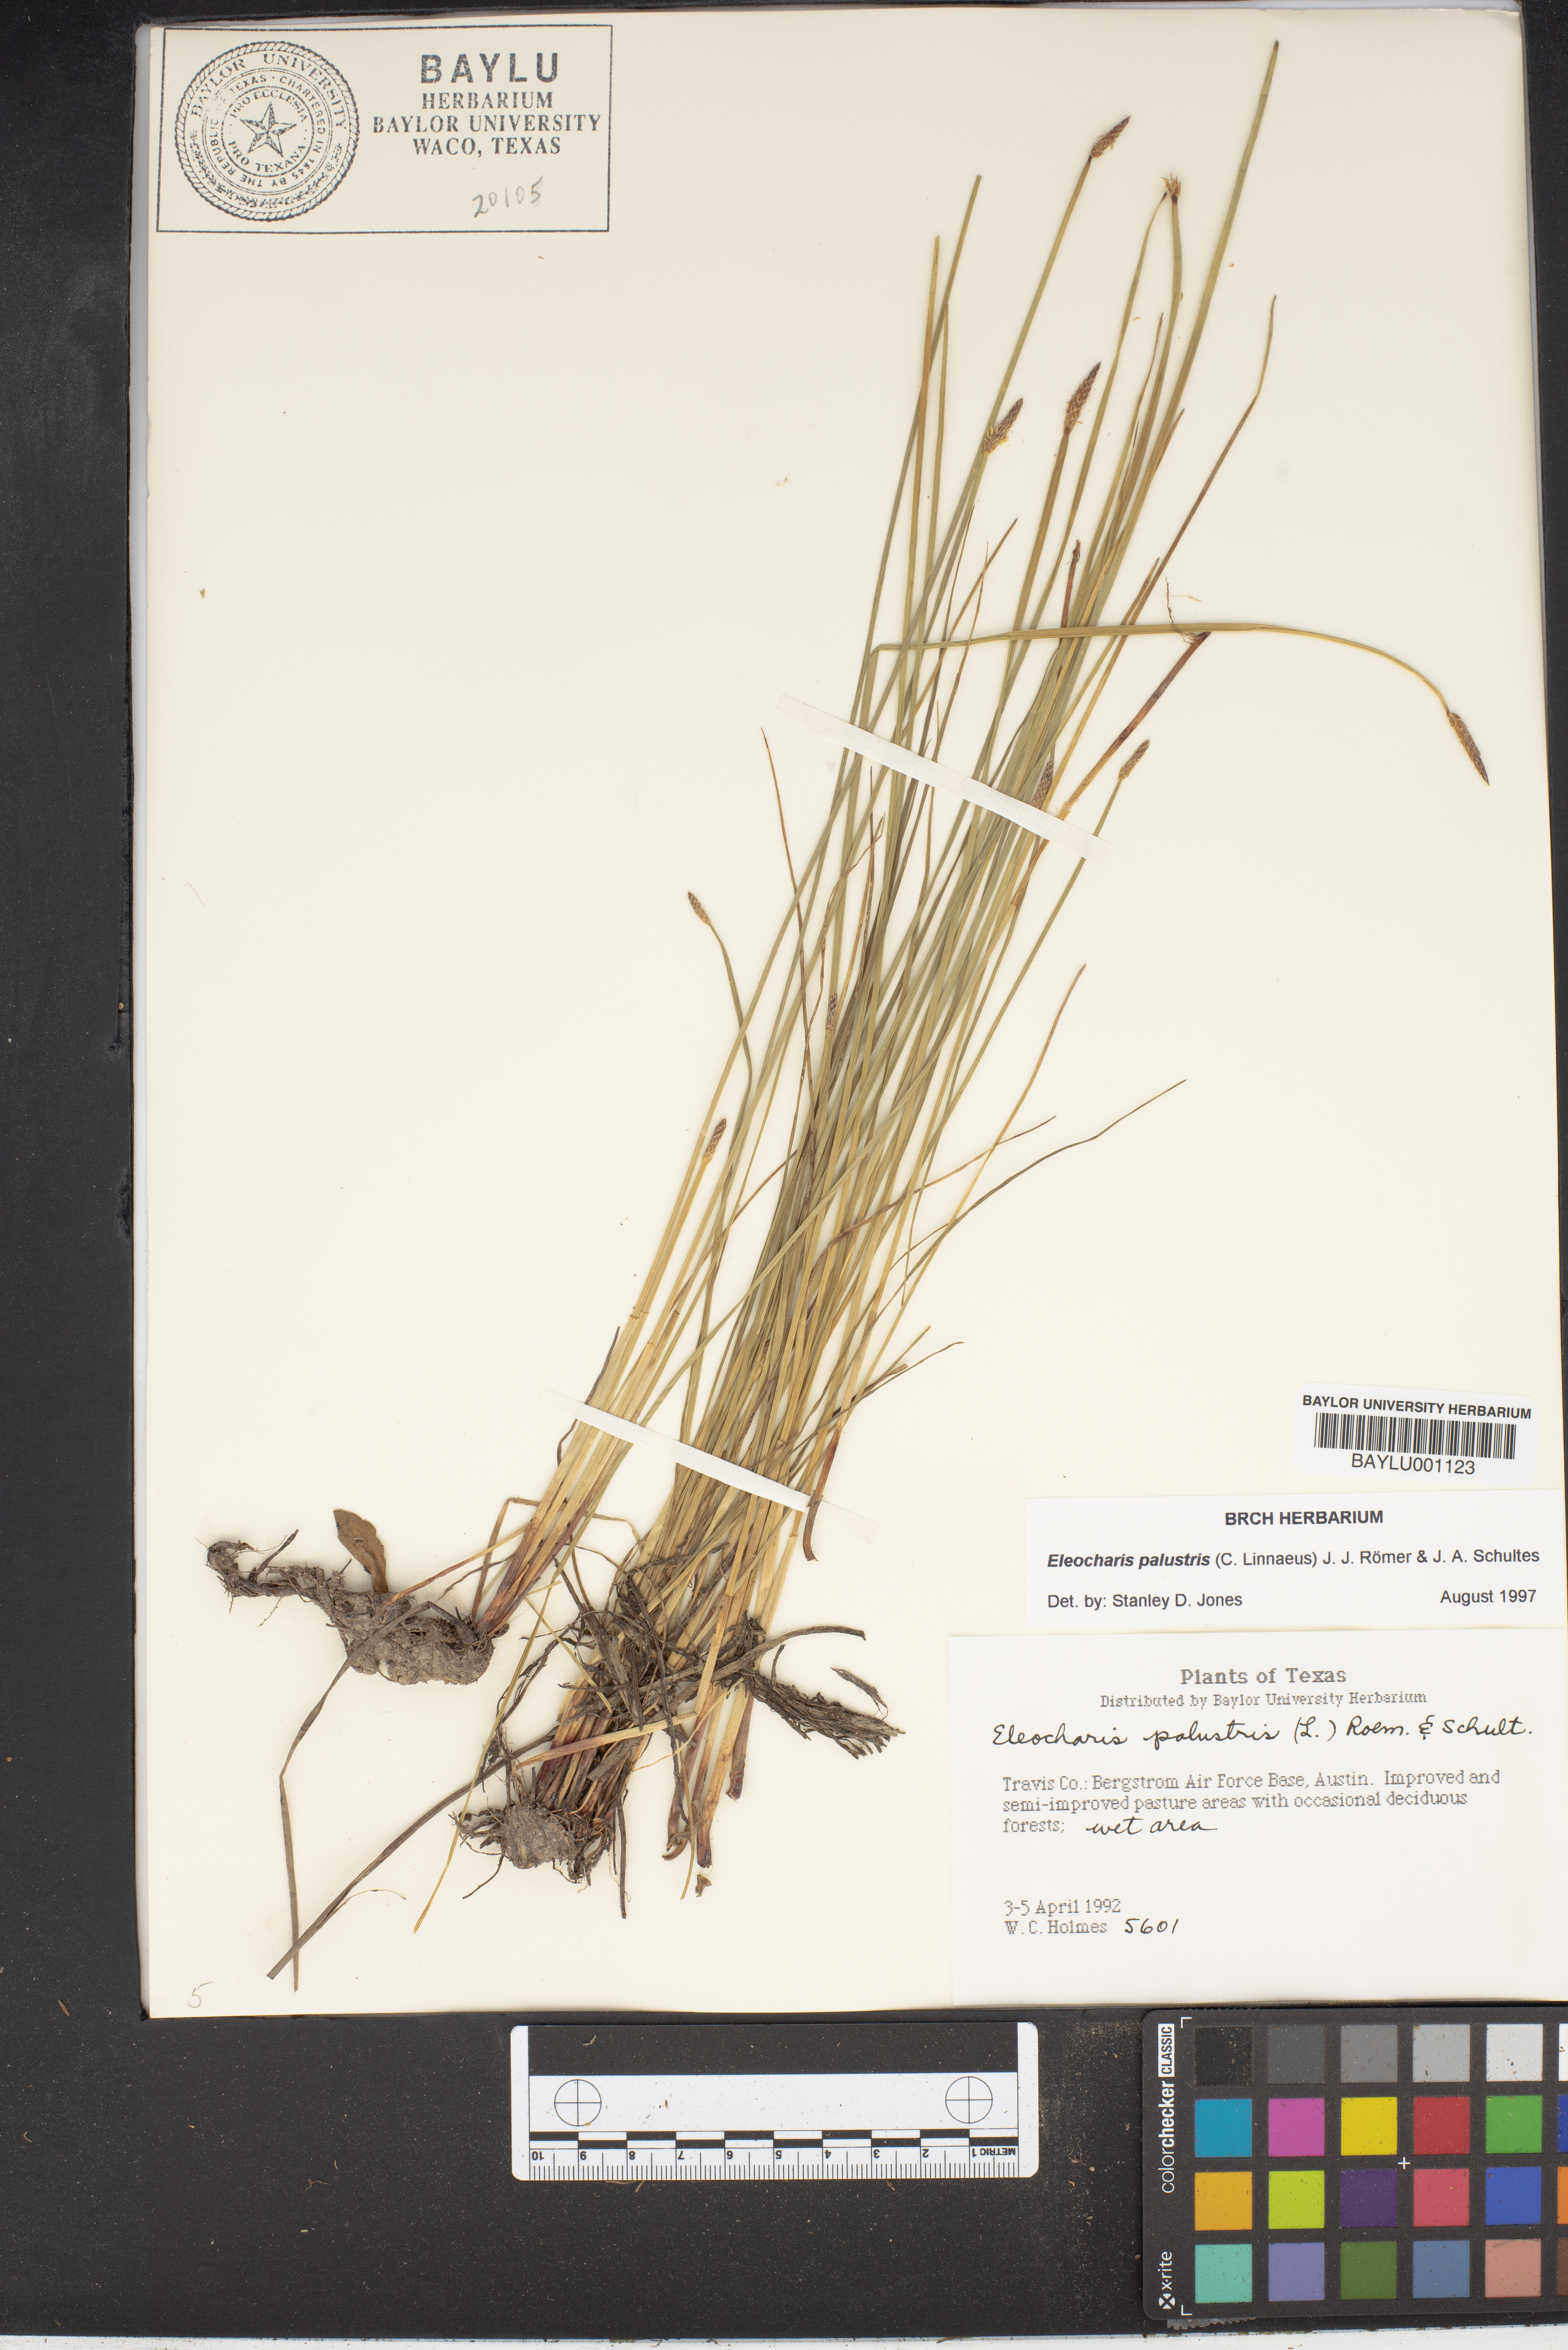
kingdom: Plantae
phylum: Tracheophyta
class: Liliopsida
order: Poales
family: Cyperaceae
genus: Eleocharis
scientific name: Eleocharis palustris
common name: Common spike-rush
